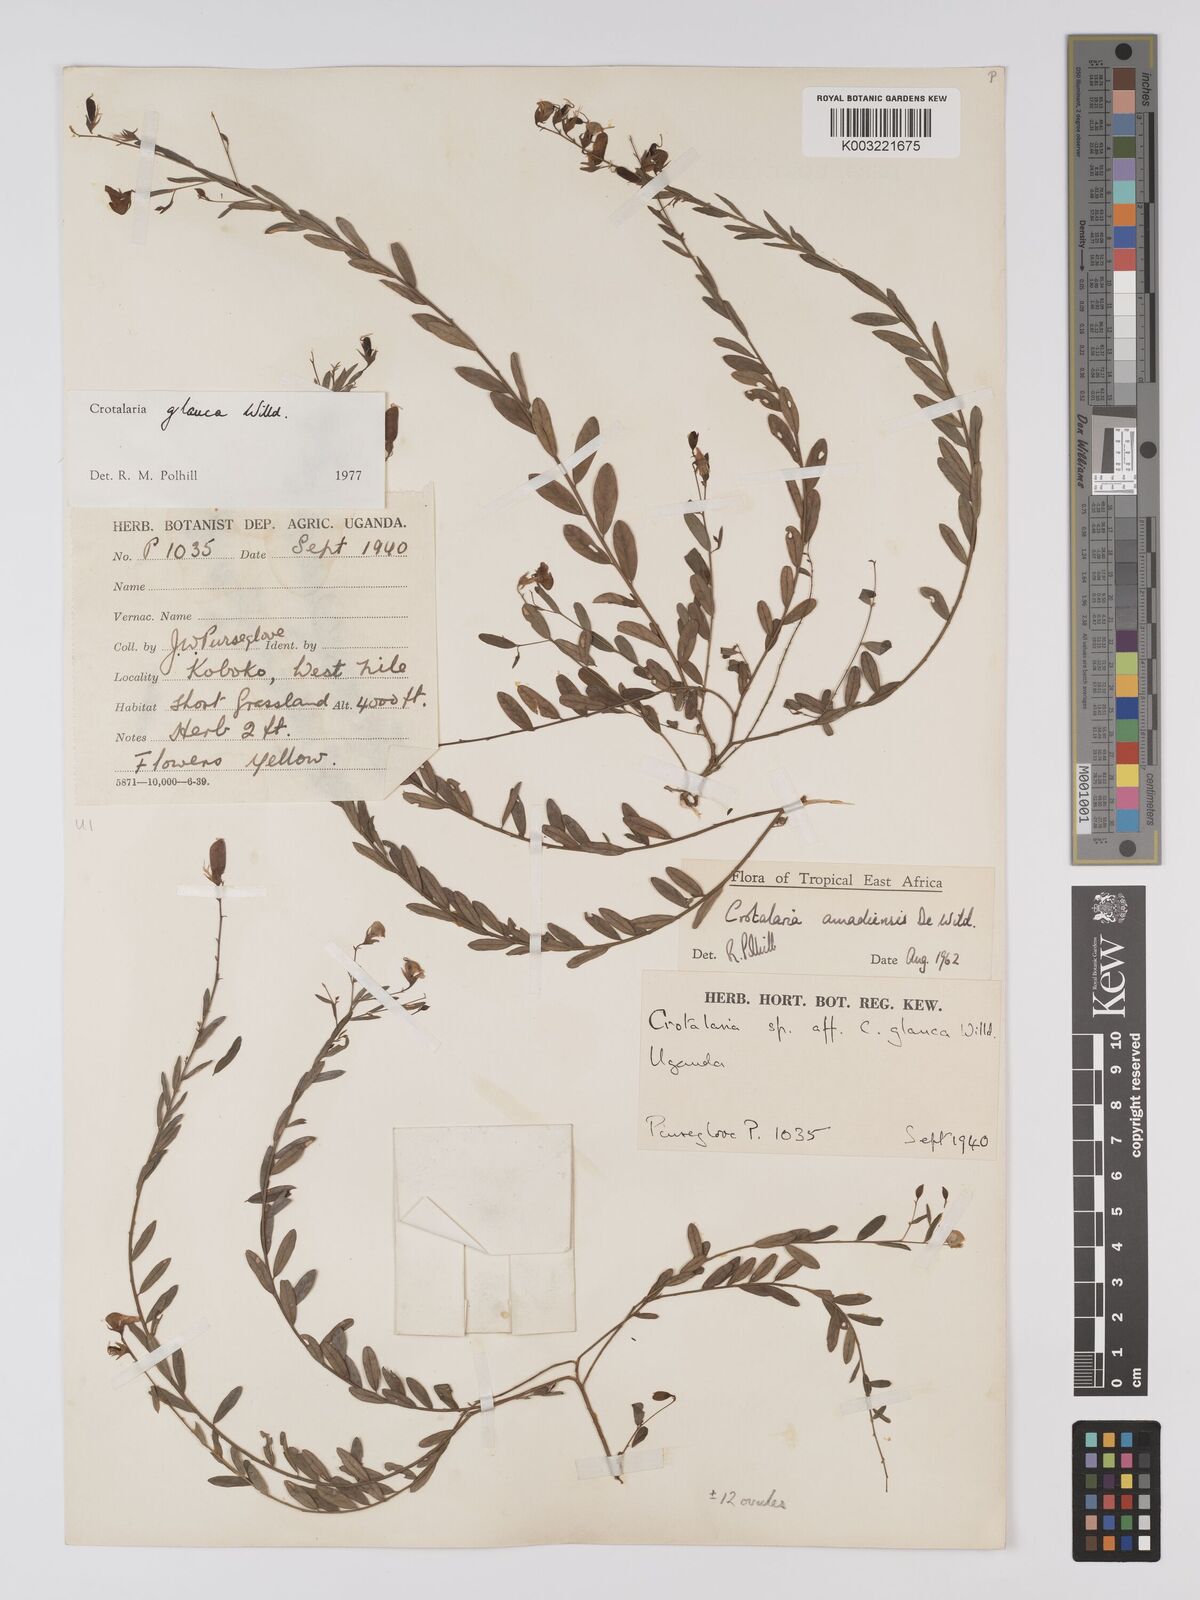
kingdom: Plantae
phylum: Tracheophyta
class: Magnoliopsida
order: Fabales
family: Fabaceae
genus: Crotalaria
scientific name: Crotalaria glauca
